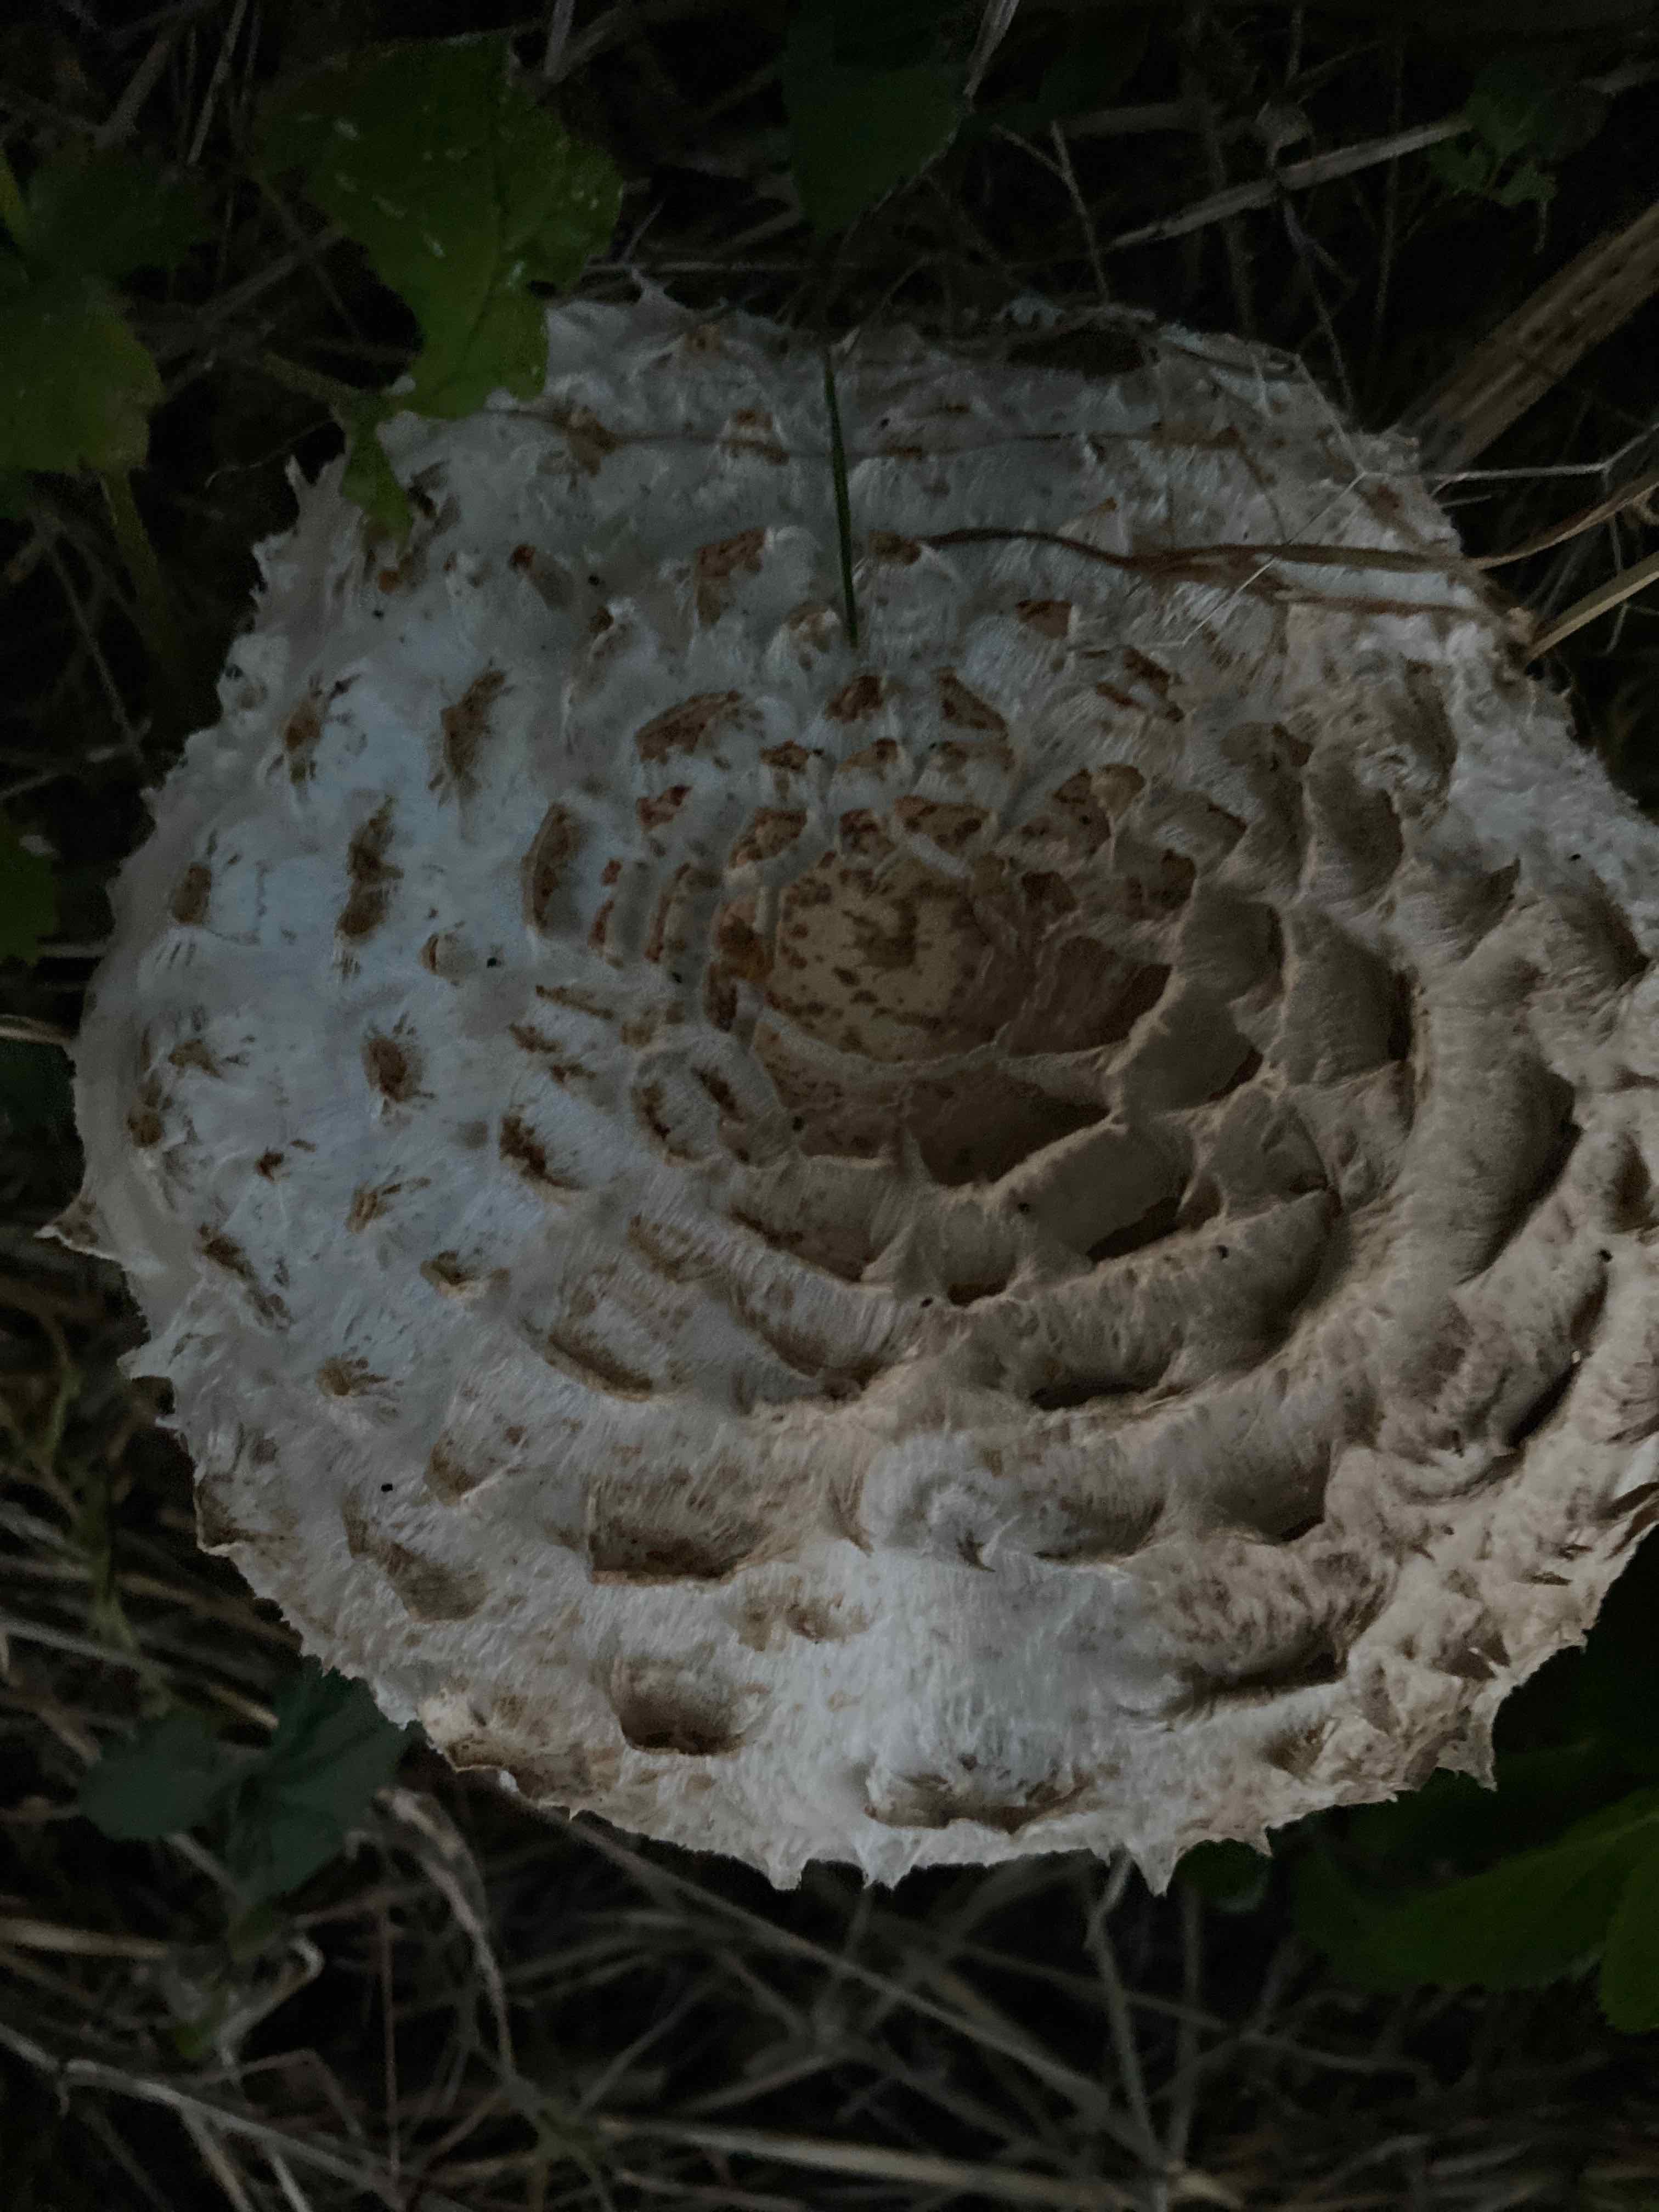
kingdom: Fungi
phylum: Basidiomycota
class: Agaricomycetes
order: Agaricales
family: Agaricaceae
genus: Chlorophyllum
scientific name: Chlorophyllum rhacodes
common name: ægte rabarberhat
